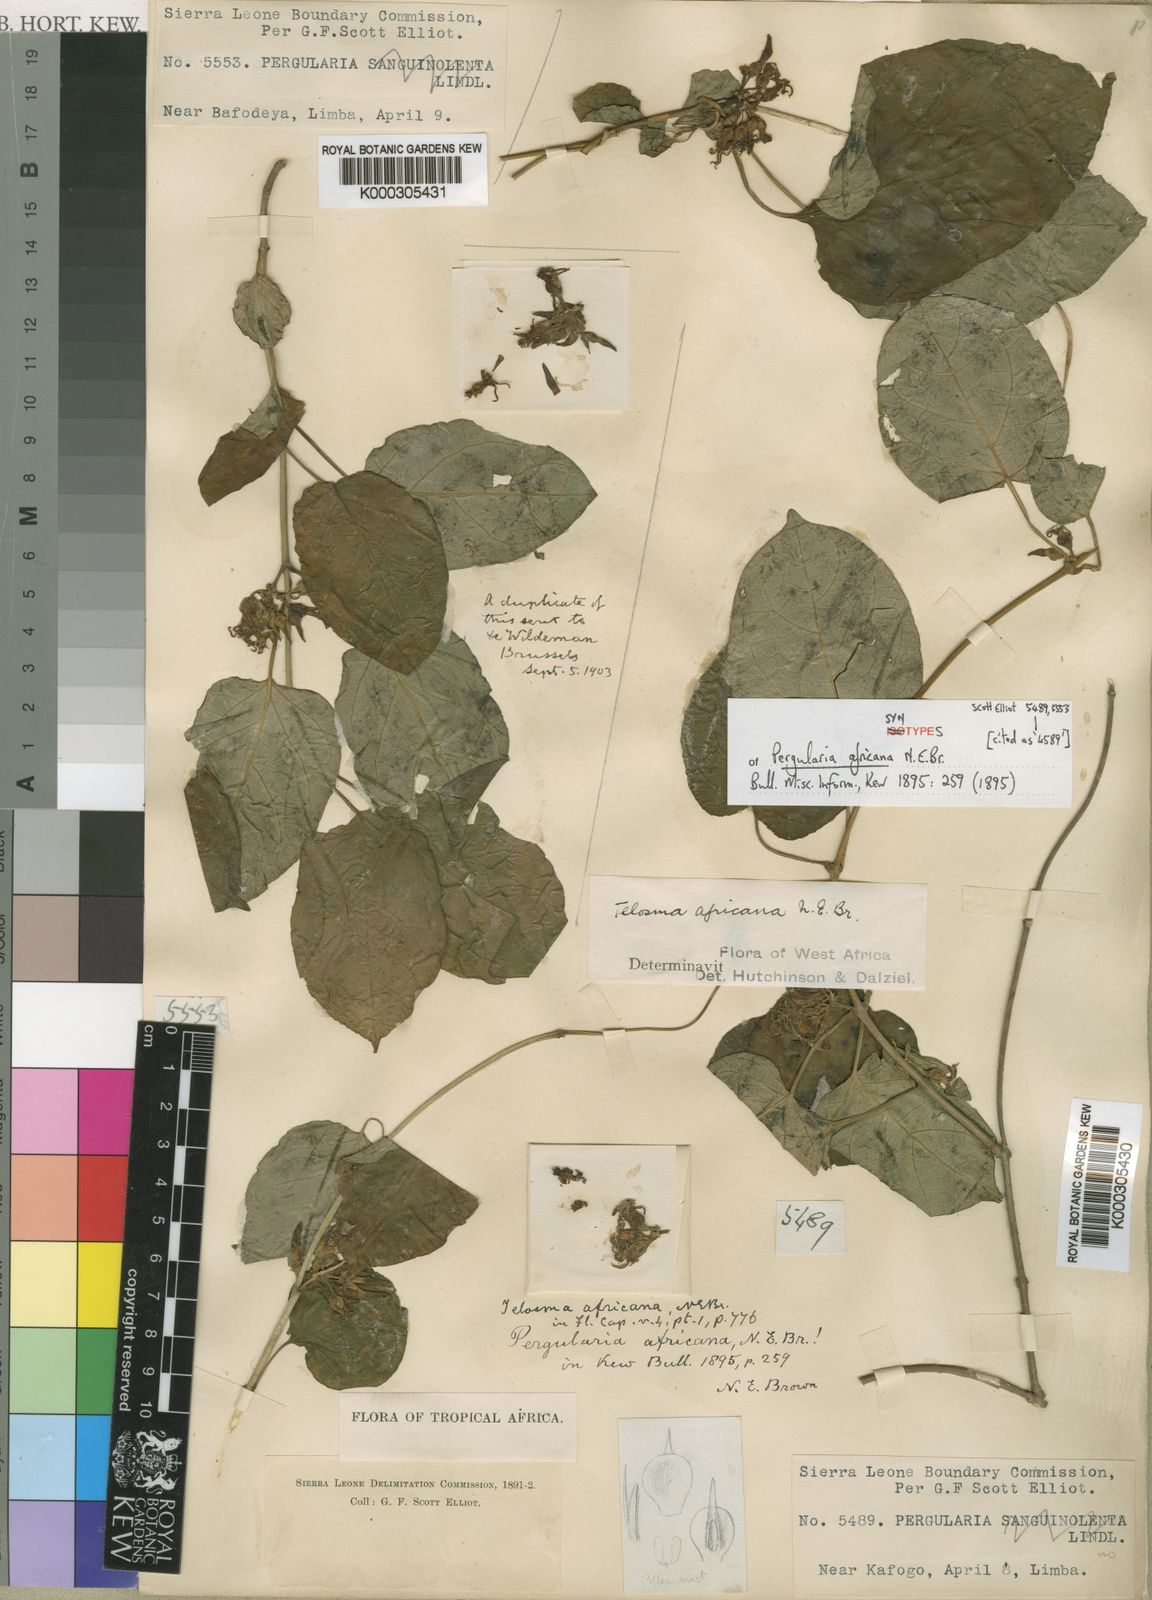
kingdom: Plantae
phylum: Tracheophyta
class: Magnoliopsida
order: Gentianales
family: Apocynaceae
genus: Telosma
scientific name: Telosma africana
